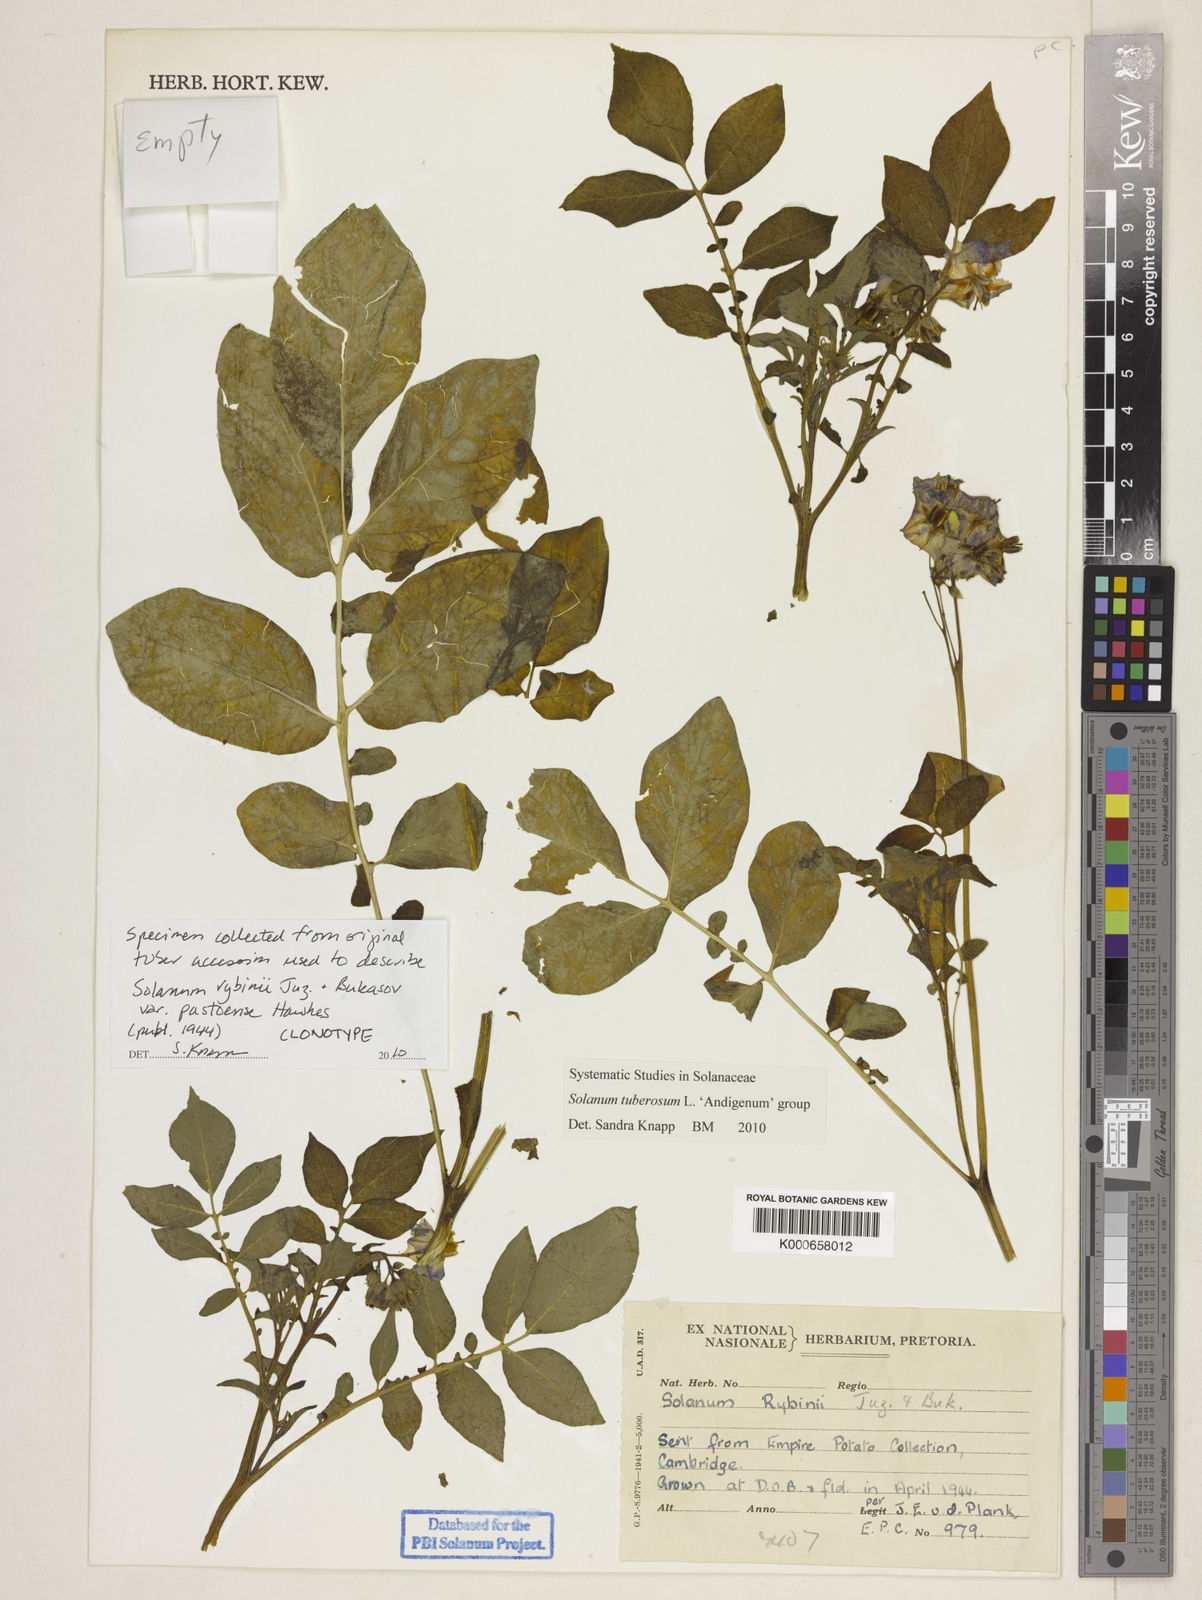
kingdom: Plantae
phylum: Tracheophyta
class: Magnoliopsida
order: Solanales
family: Solanaceae
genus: Solanum
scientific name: Solanum tuberosum
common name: Potato
